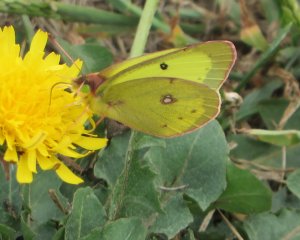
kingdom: Animalia
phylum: Arthropoda
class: Insecta
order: Lepidoptera
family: Pieridae
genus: Colias
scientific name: Colias philodice
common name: Clouded Sulphur
